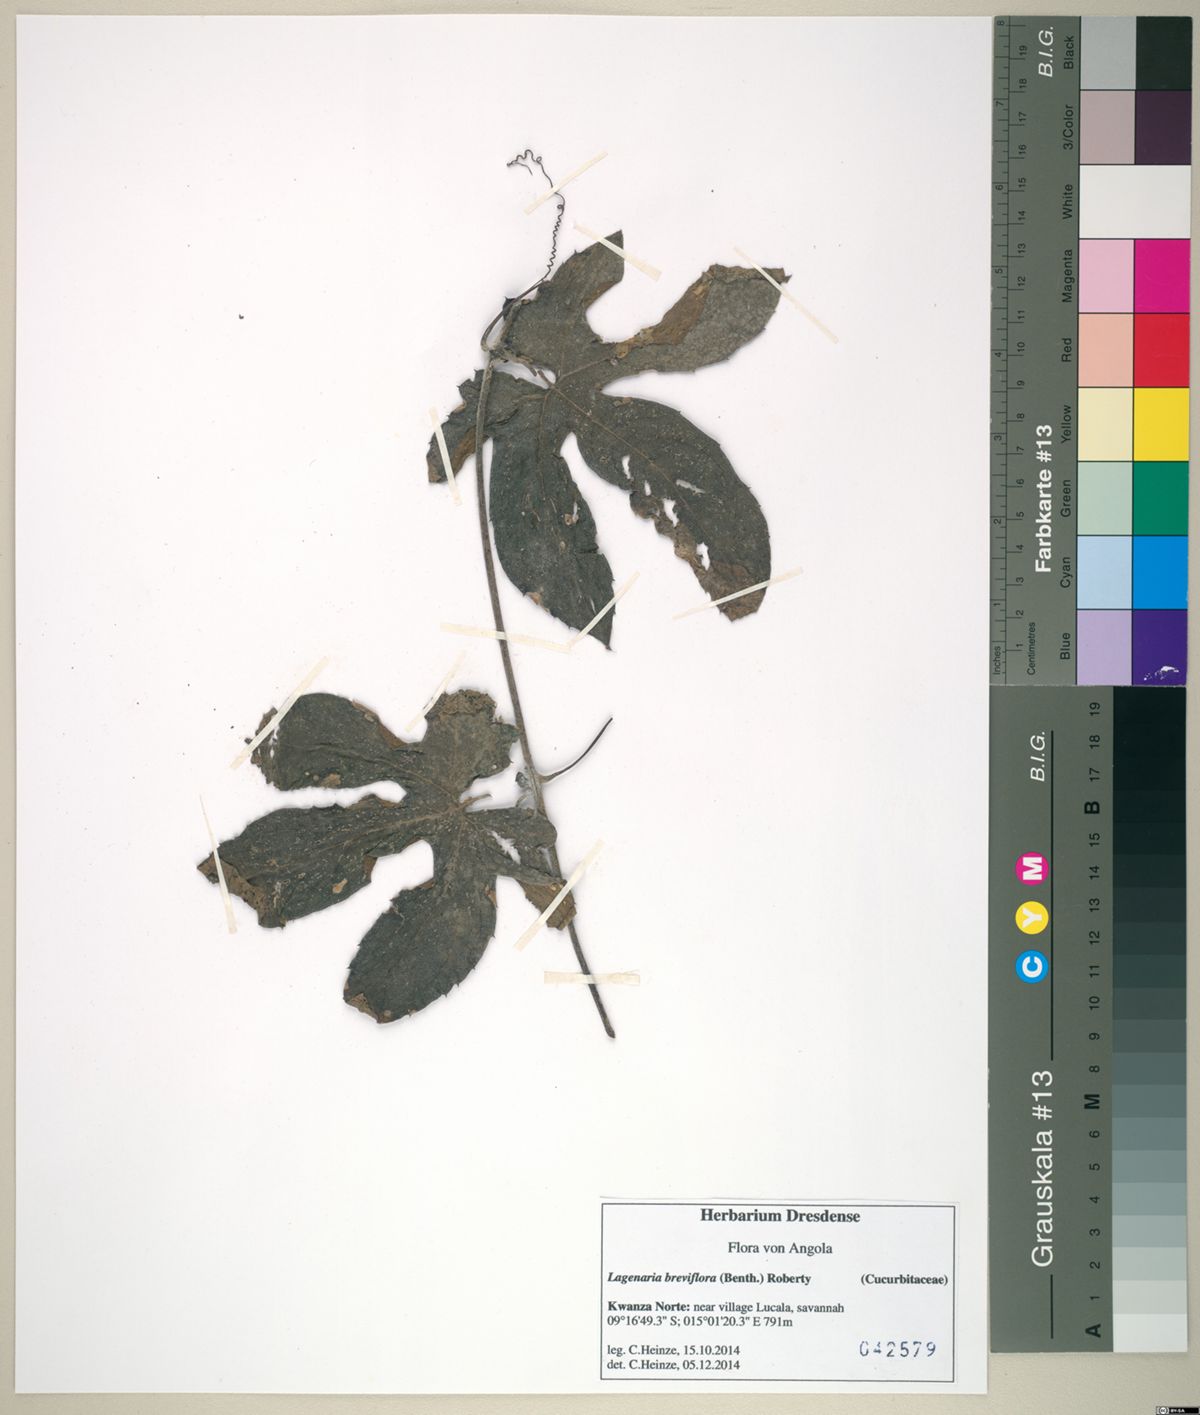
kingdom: Plantae
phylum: Tracheophyta
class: Magnoliopsida
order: Cucurbitales
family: Cucurbitaceae
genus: Lagenaria
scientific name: Lagenaria breviflora
